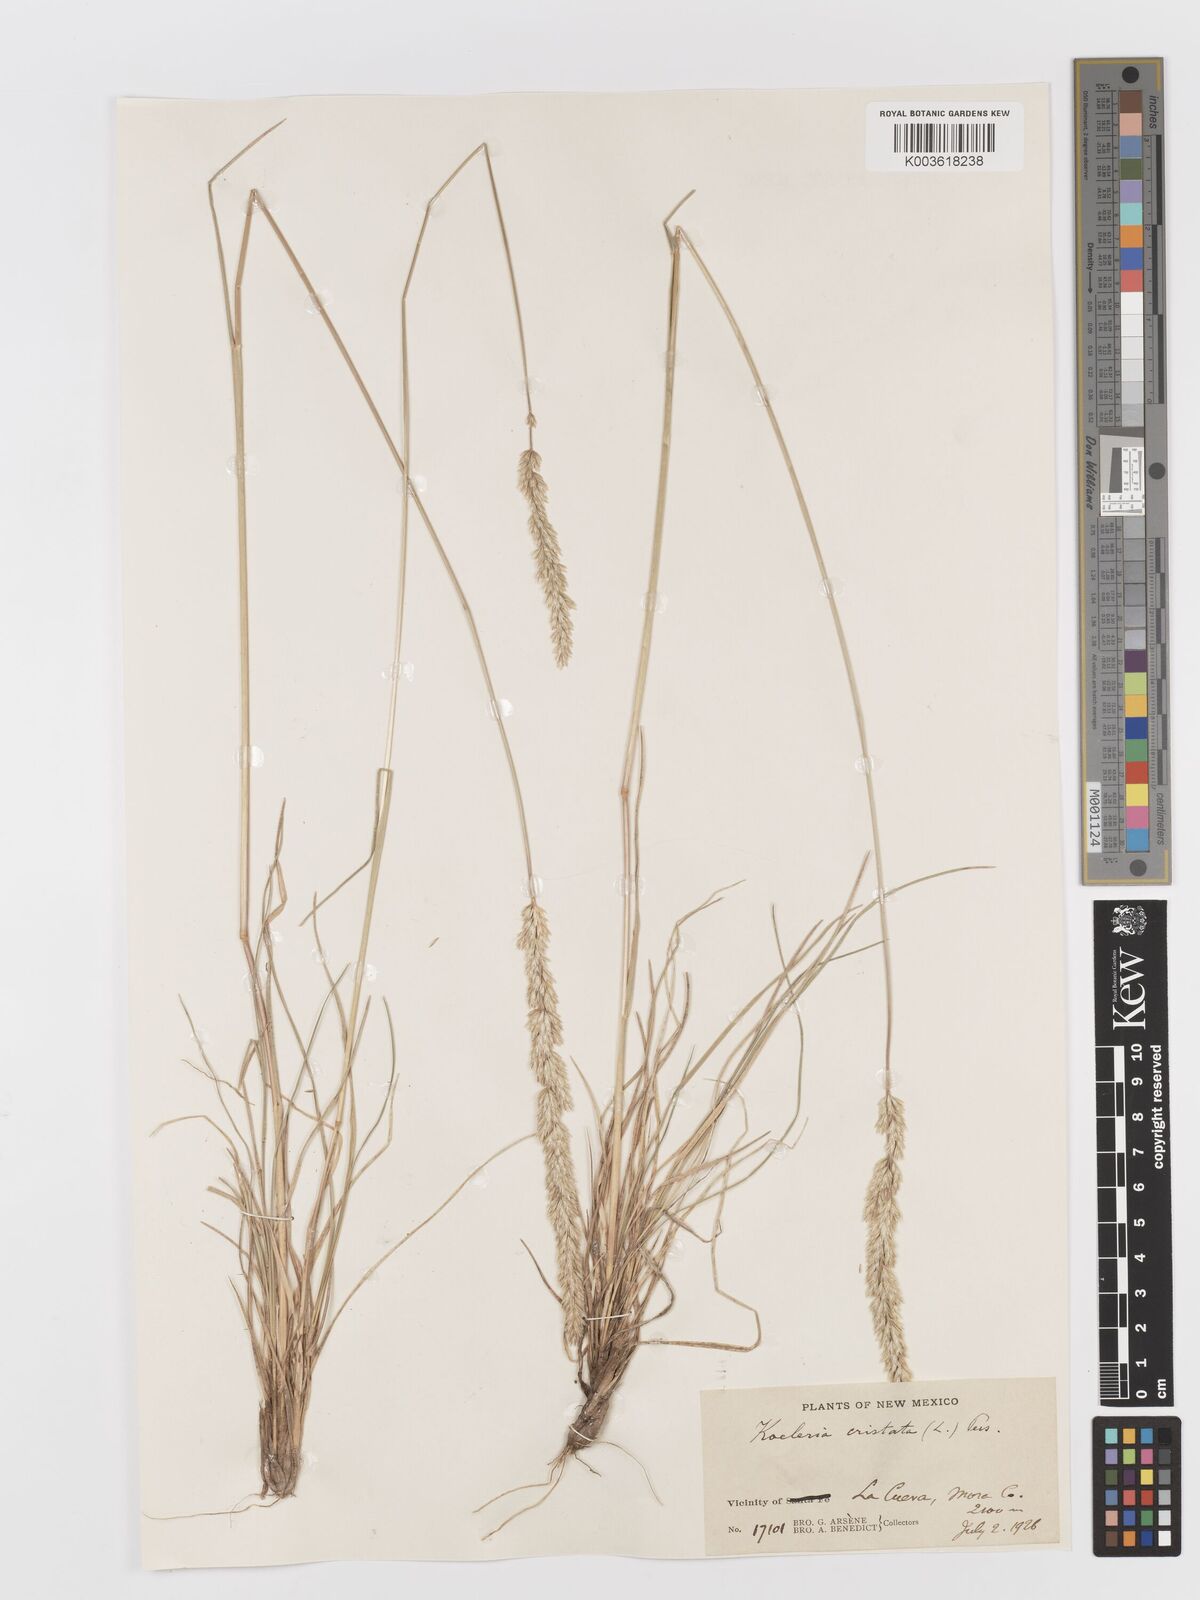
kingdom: Plantae
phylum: Tracheophyta
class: Liliopsida
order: Poales
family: Poaceae
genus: Koeleria
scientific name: Koeleria macrantha
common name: Crested hair-grass
